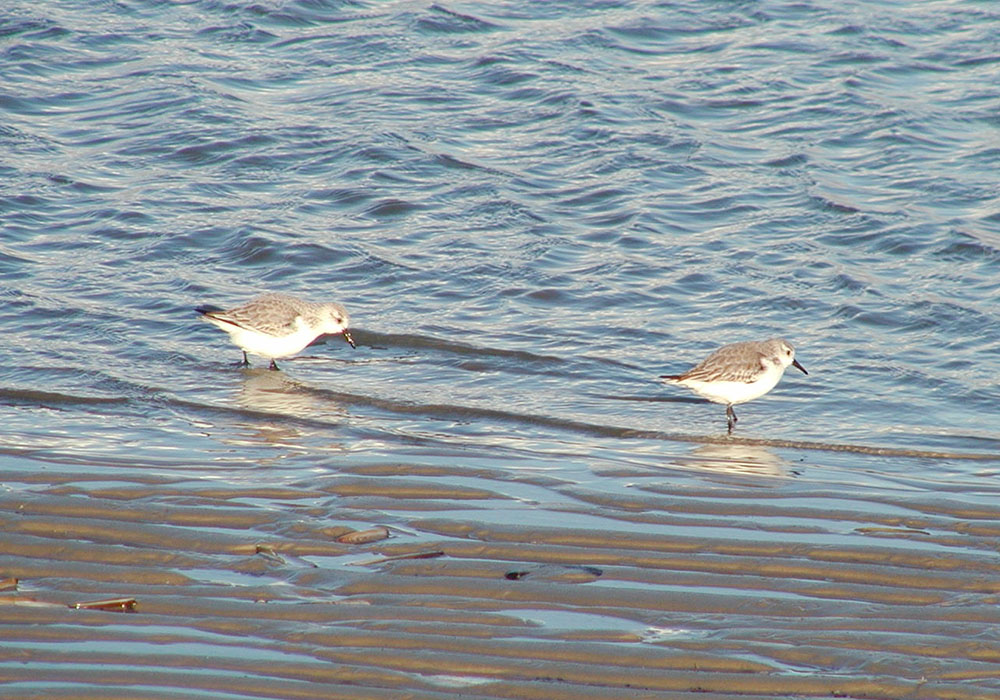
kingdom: Animalia
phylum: Chordata
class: Aves
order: Charadriiformes
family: Scolopacidae
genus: Calidris
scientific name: Calidris alba
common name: Sanderling
